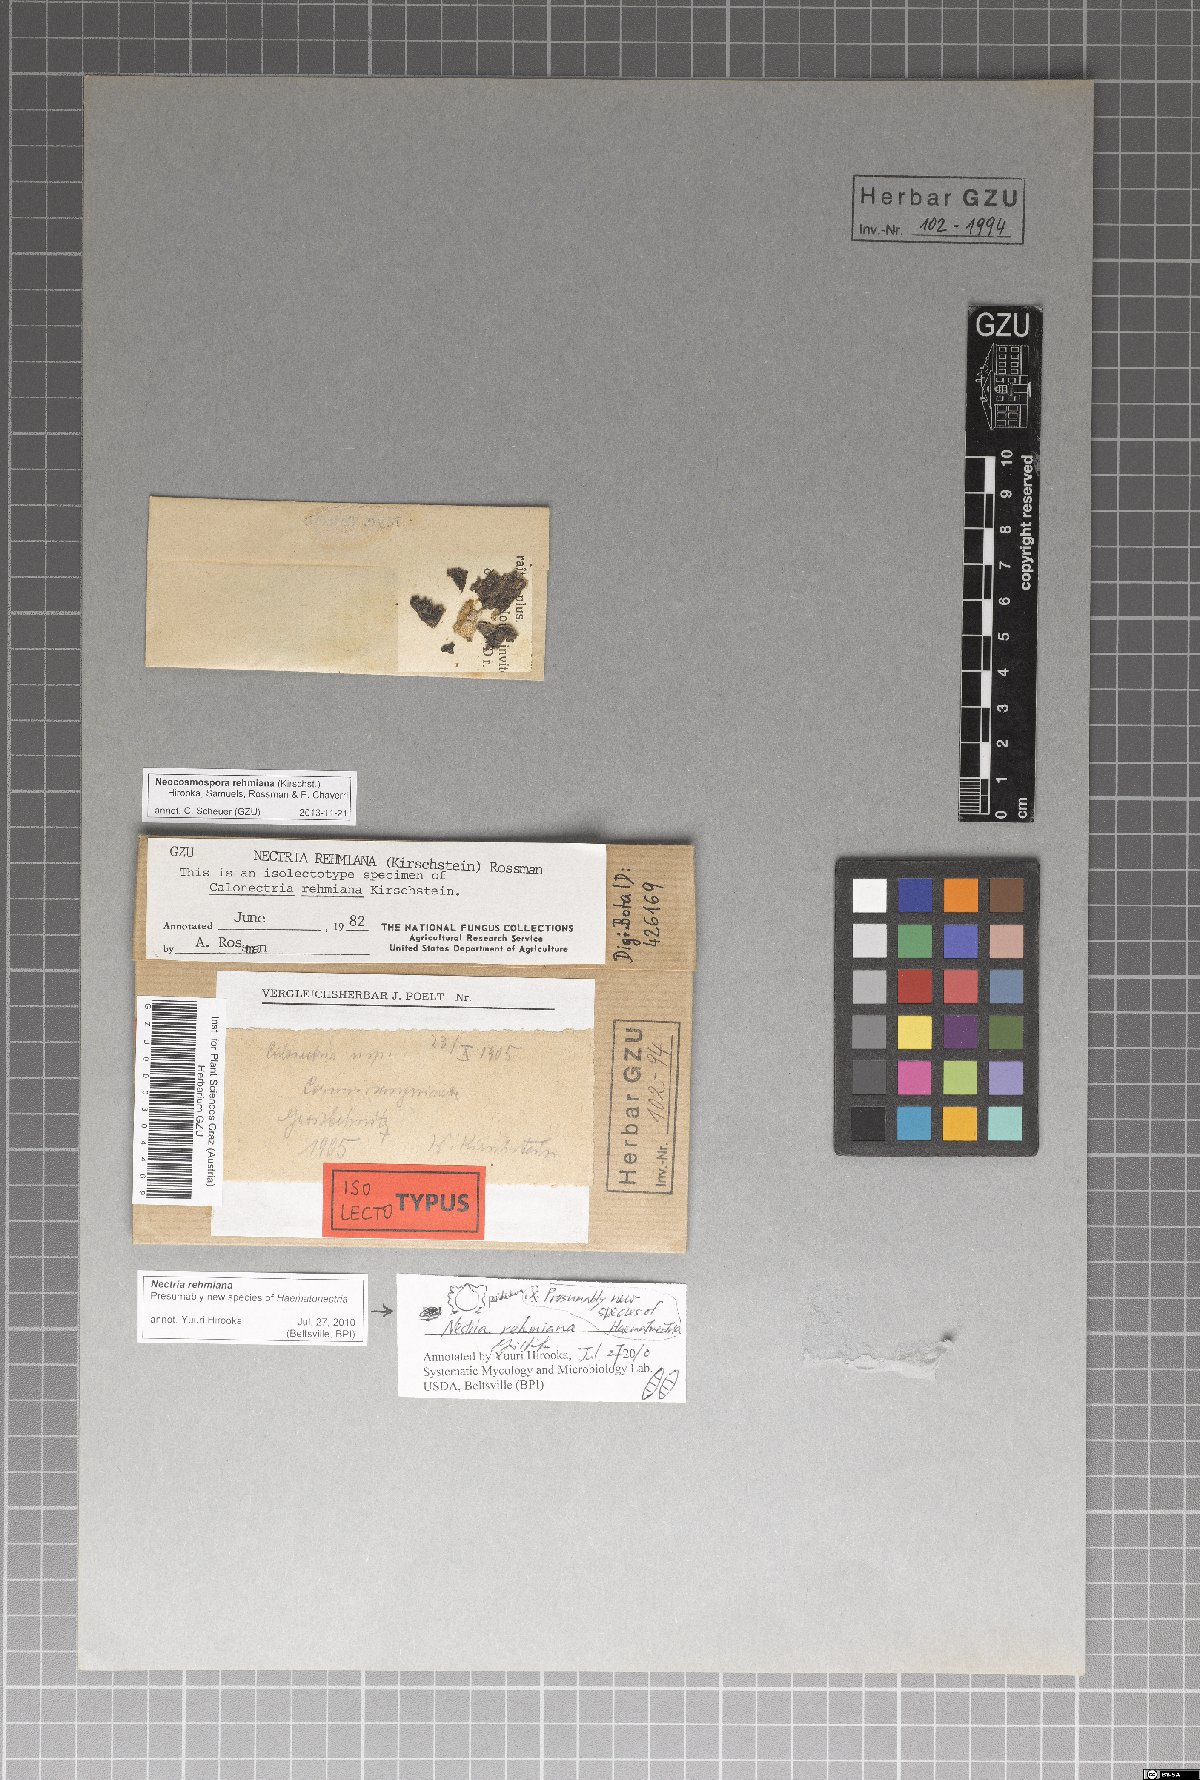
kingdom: Fungi
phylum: Ascomycota
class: Sordariomycetes
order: Hypocreales
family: Nectriaceae
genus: Nectria
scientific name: Nectria rehmiana
